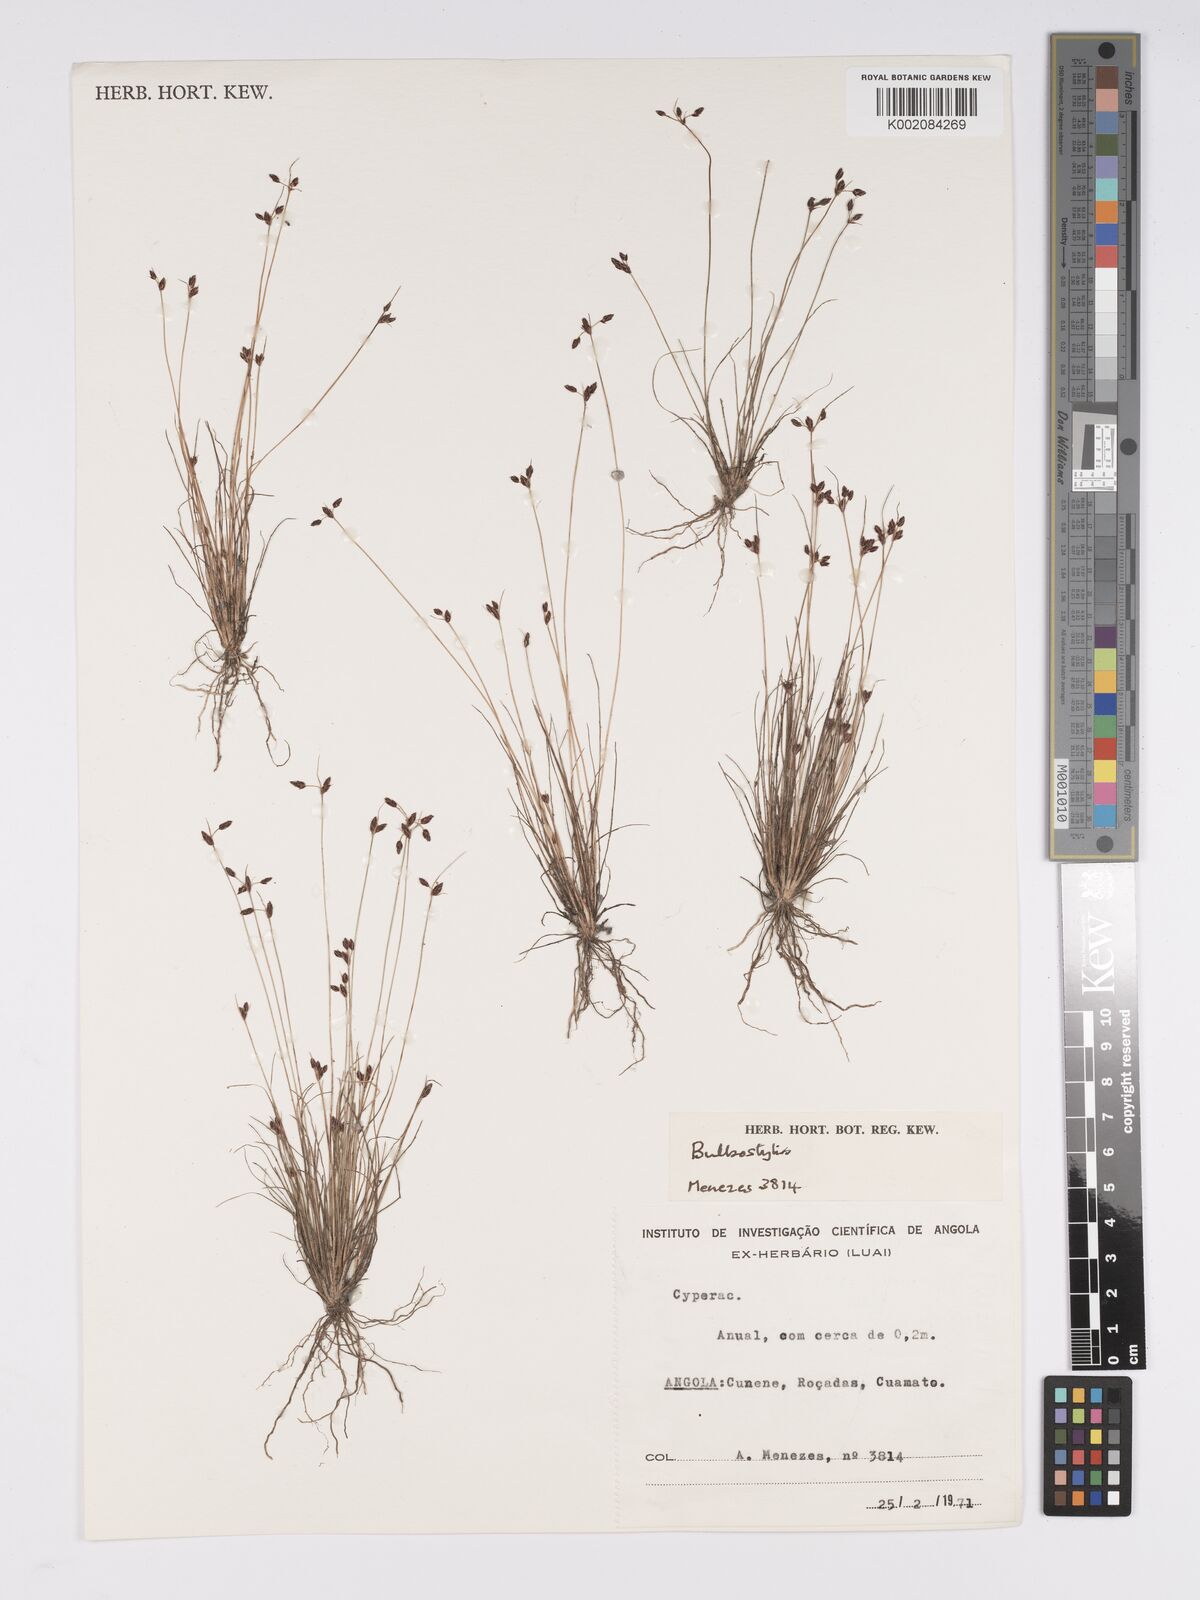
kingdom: Plantae
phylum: Tracheophyta
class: Liliopsida
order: Poales
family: Cyperaceae
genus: Bulbostylis
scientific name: Bulbostylis
